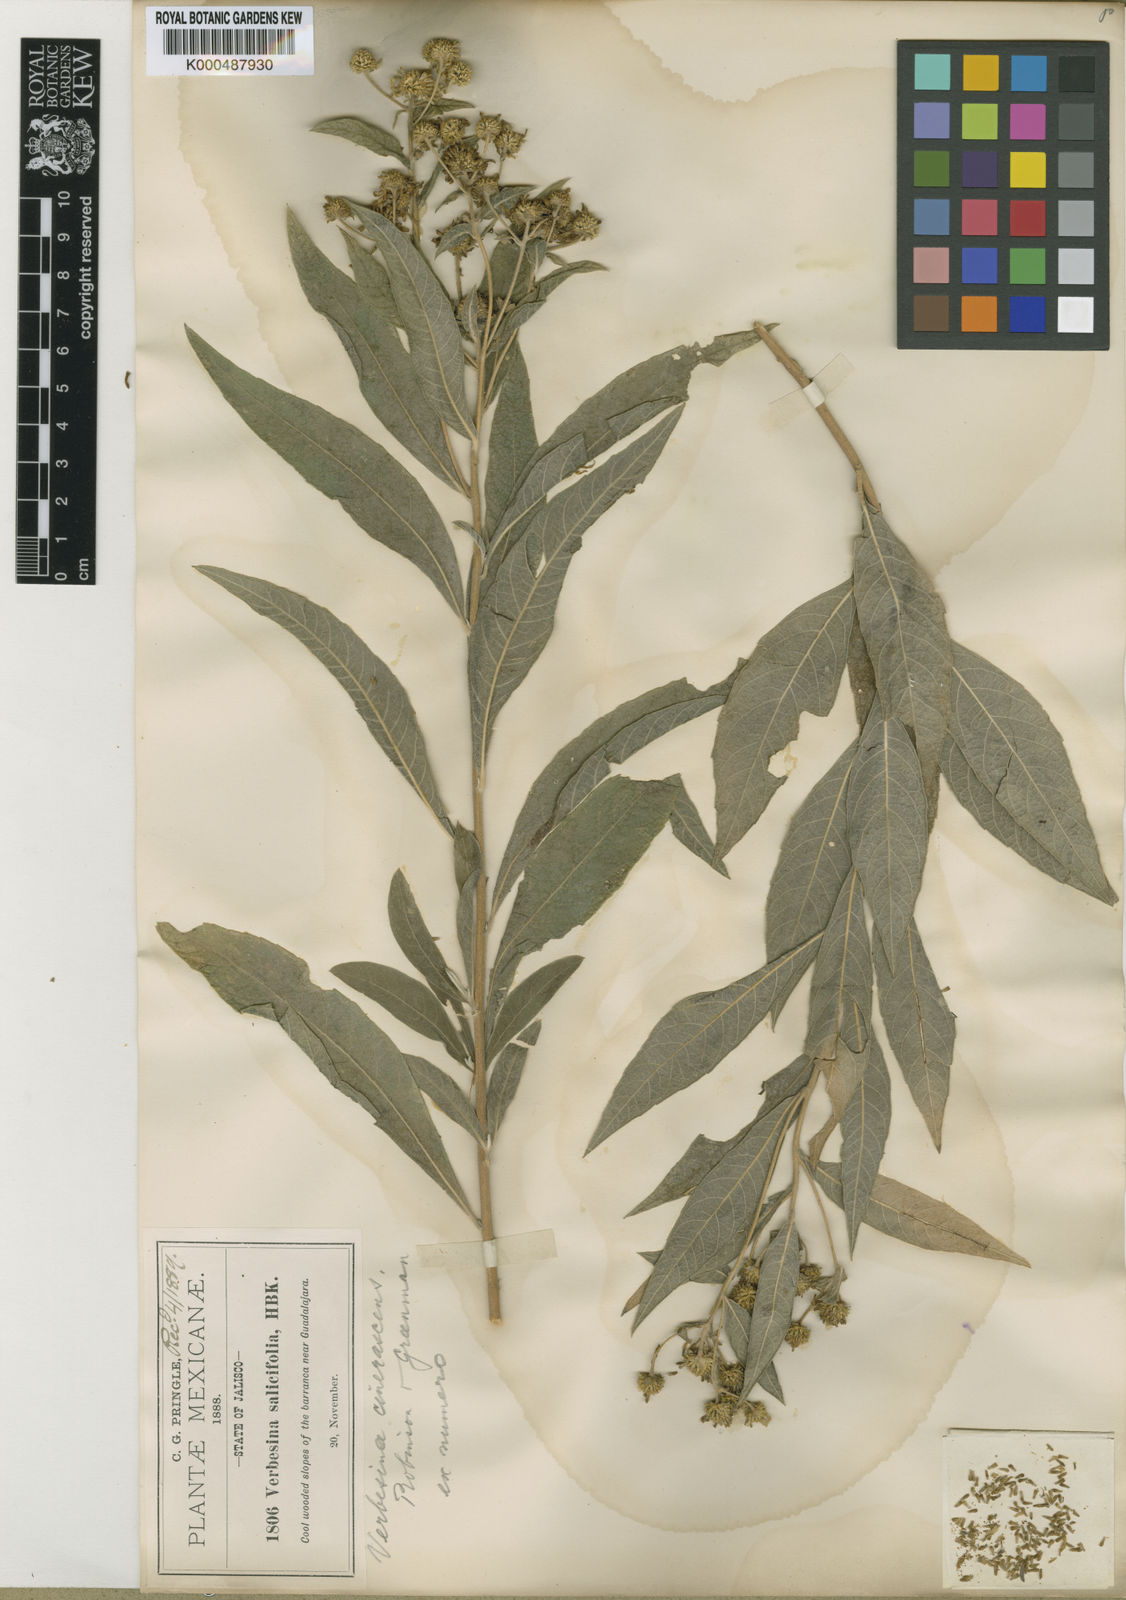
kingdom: Plantae
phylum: Tracheophyta
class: Magnoliopsida
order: Asterales
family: Asteraceae
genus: Verbesina
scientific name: Verbesina virgata
